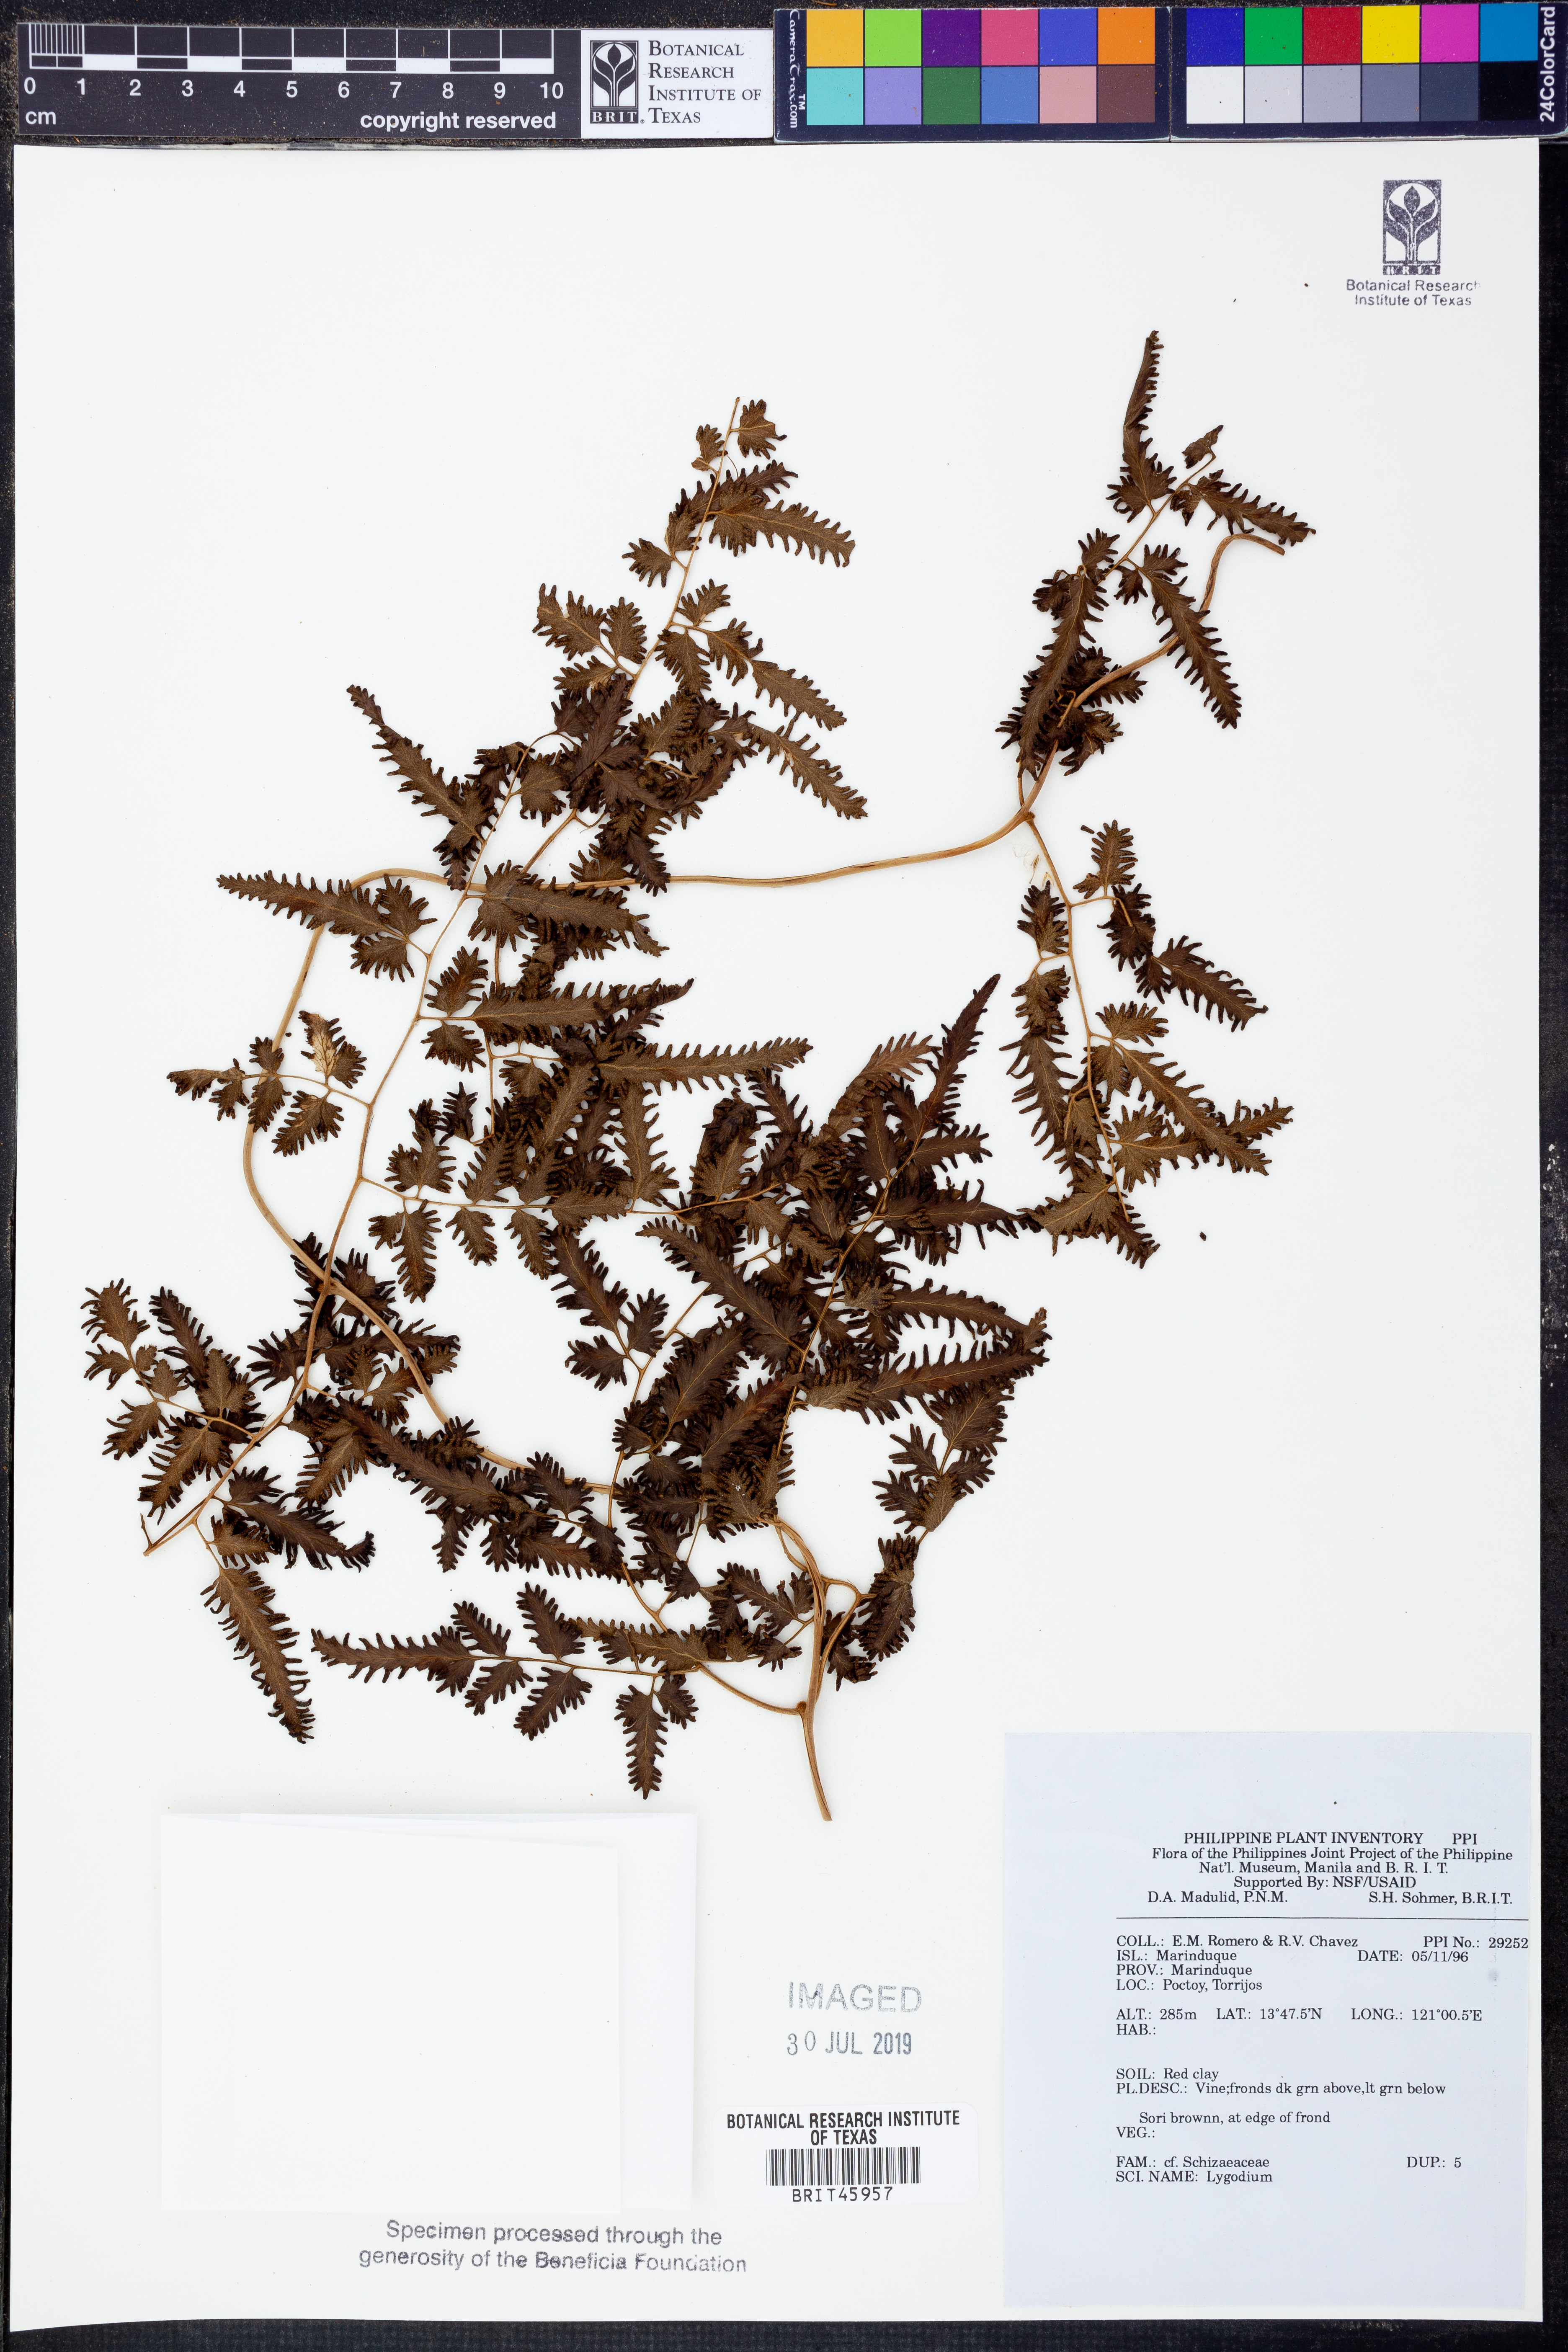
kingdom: Plantae
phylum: Tracheophyta
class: Polypodiopsida
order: Schizaeales
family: Lygodiaceae
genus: Lygodium
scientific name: Lygodium
